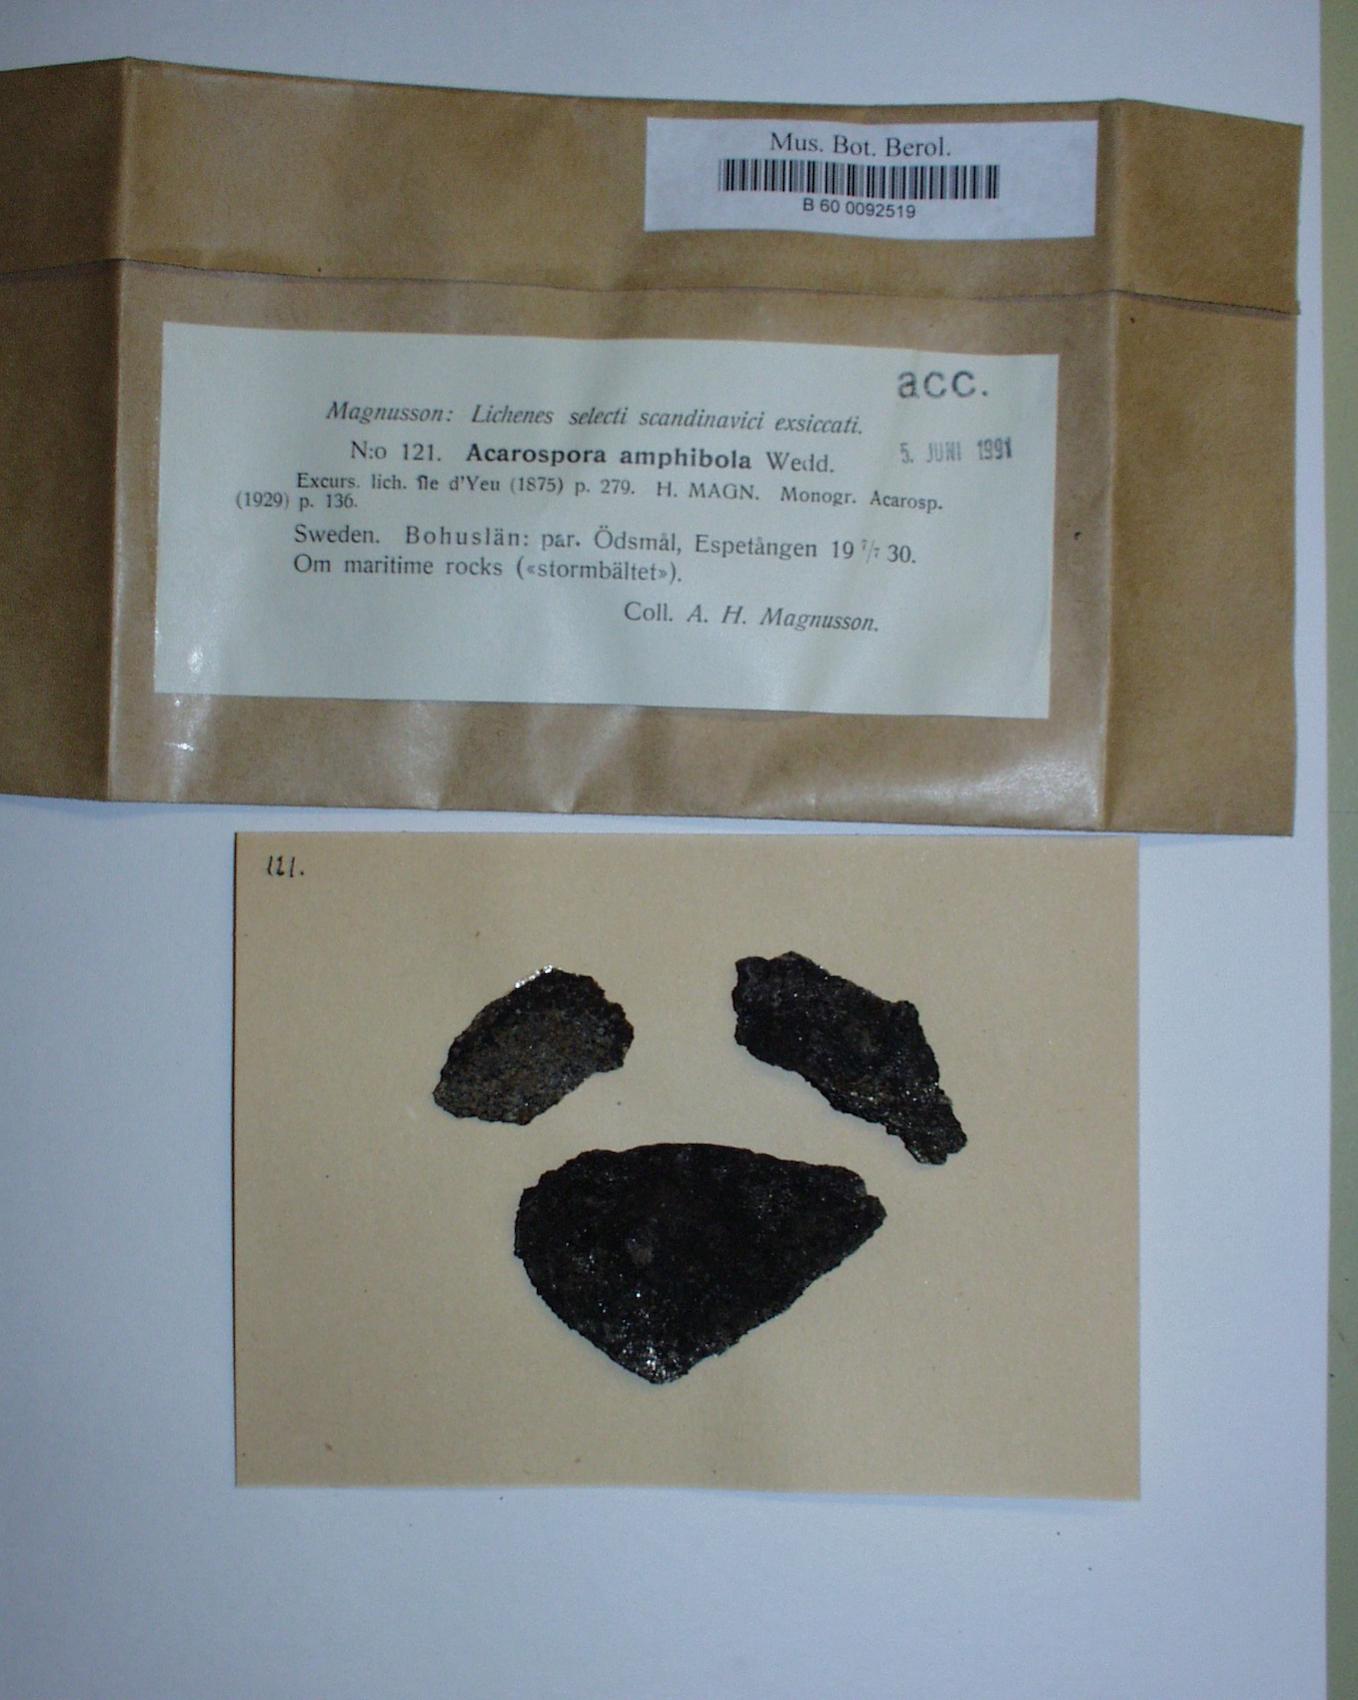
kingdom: Fungi
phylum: Ascomycota
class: Lecanoromycetes
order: Acarosporales
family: Acarosporaceae
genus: Myriospora
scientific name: Myriospora smaragdula
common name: Little emerald lichen
